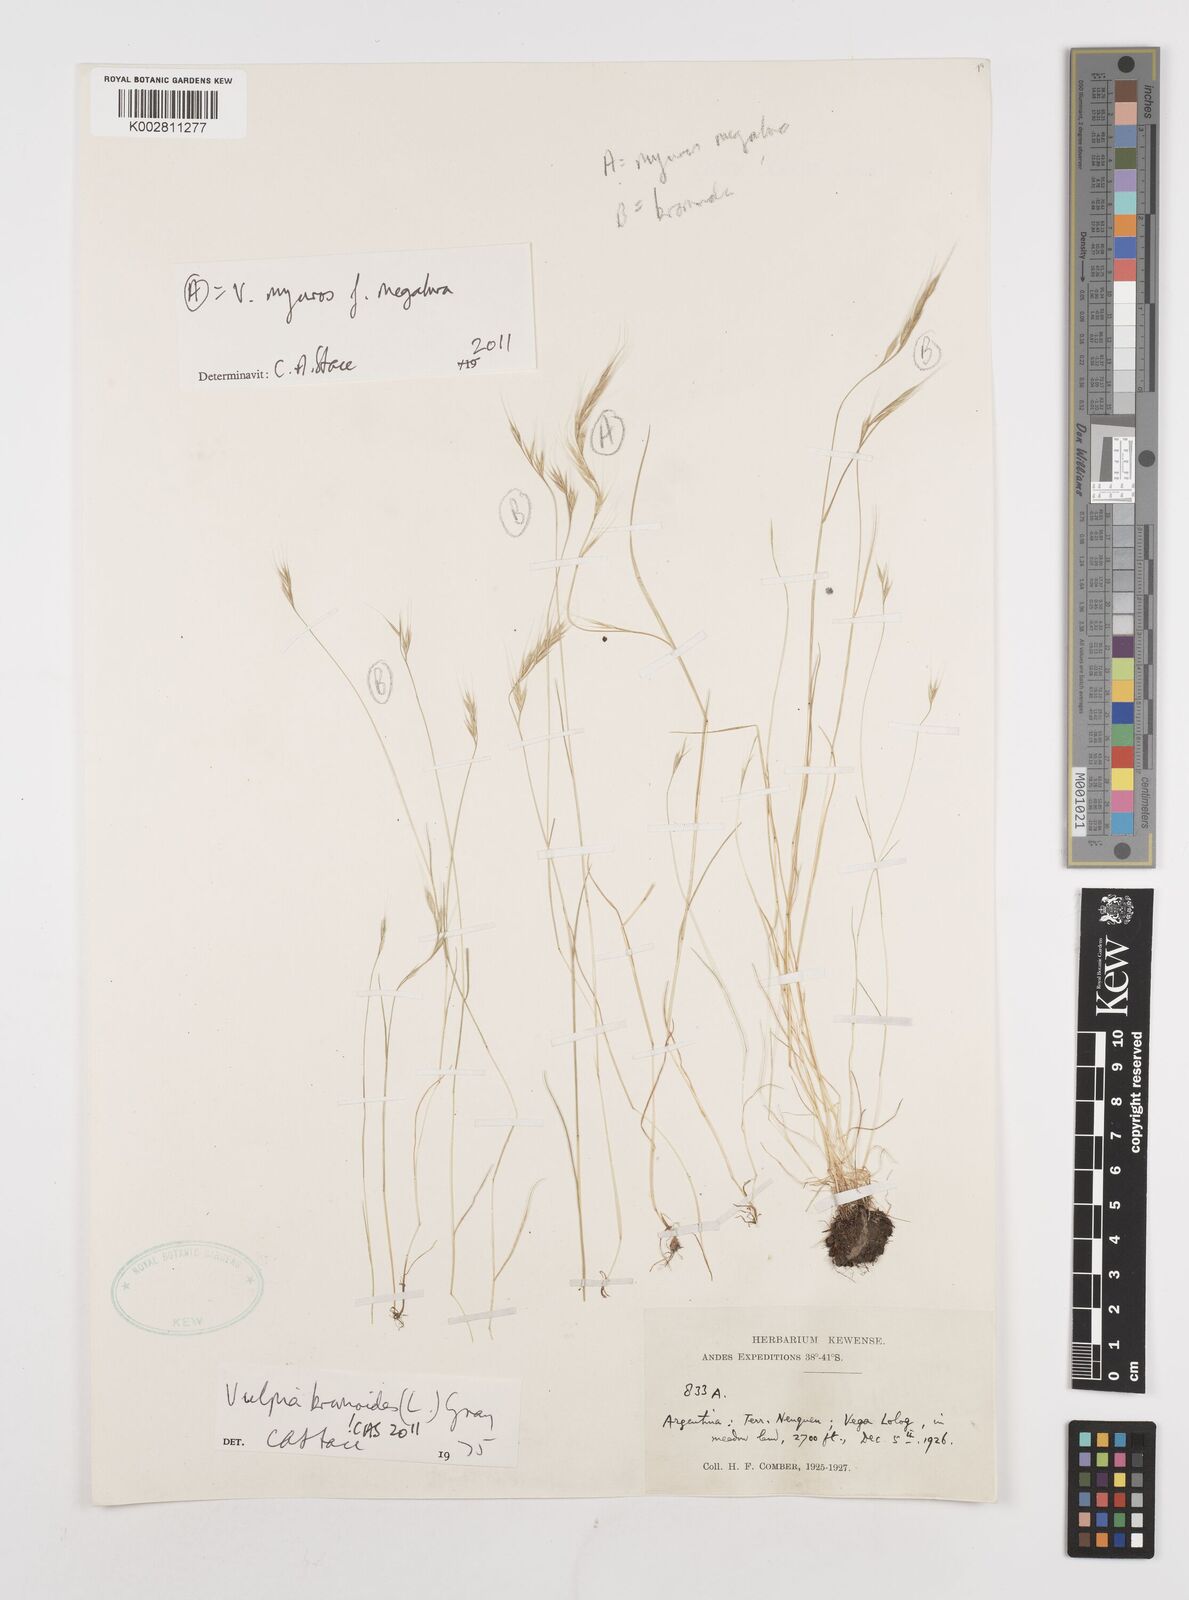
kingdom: Plantae
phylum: Tracheophyta
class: Liliopsida
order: Poales
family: Poaceae
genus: Festuca
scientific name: Festuca bromoides
